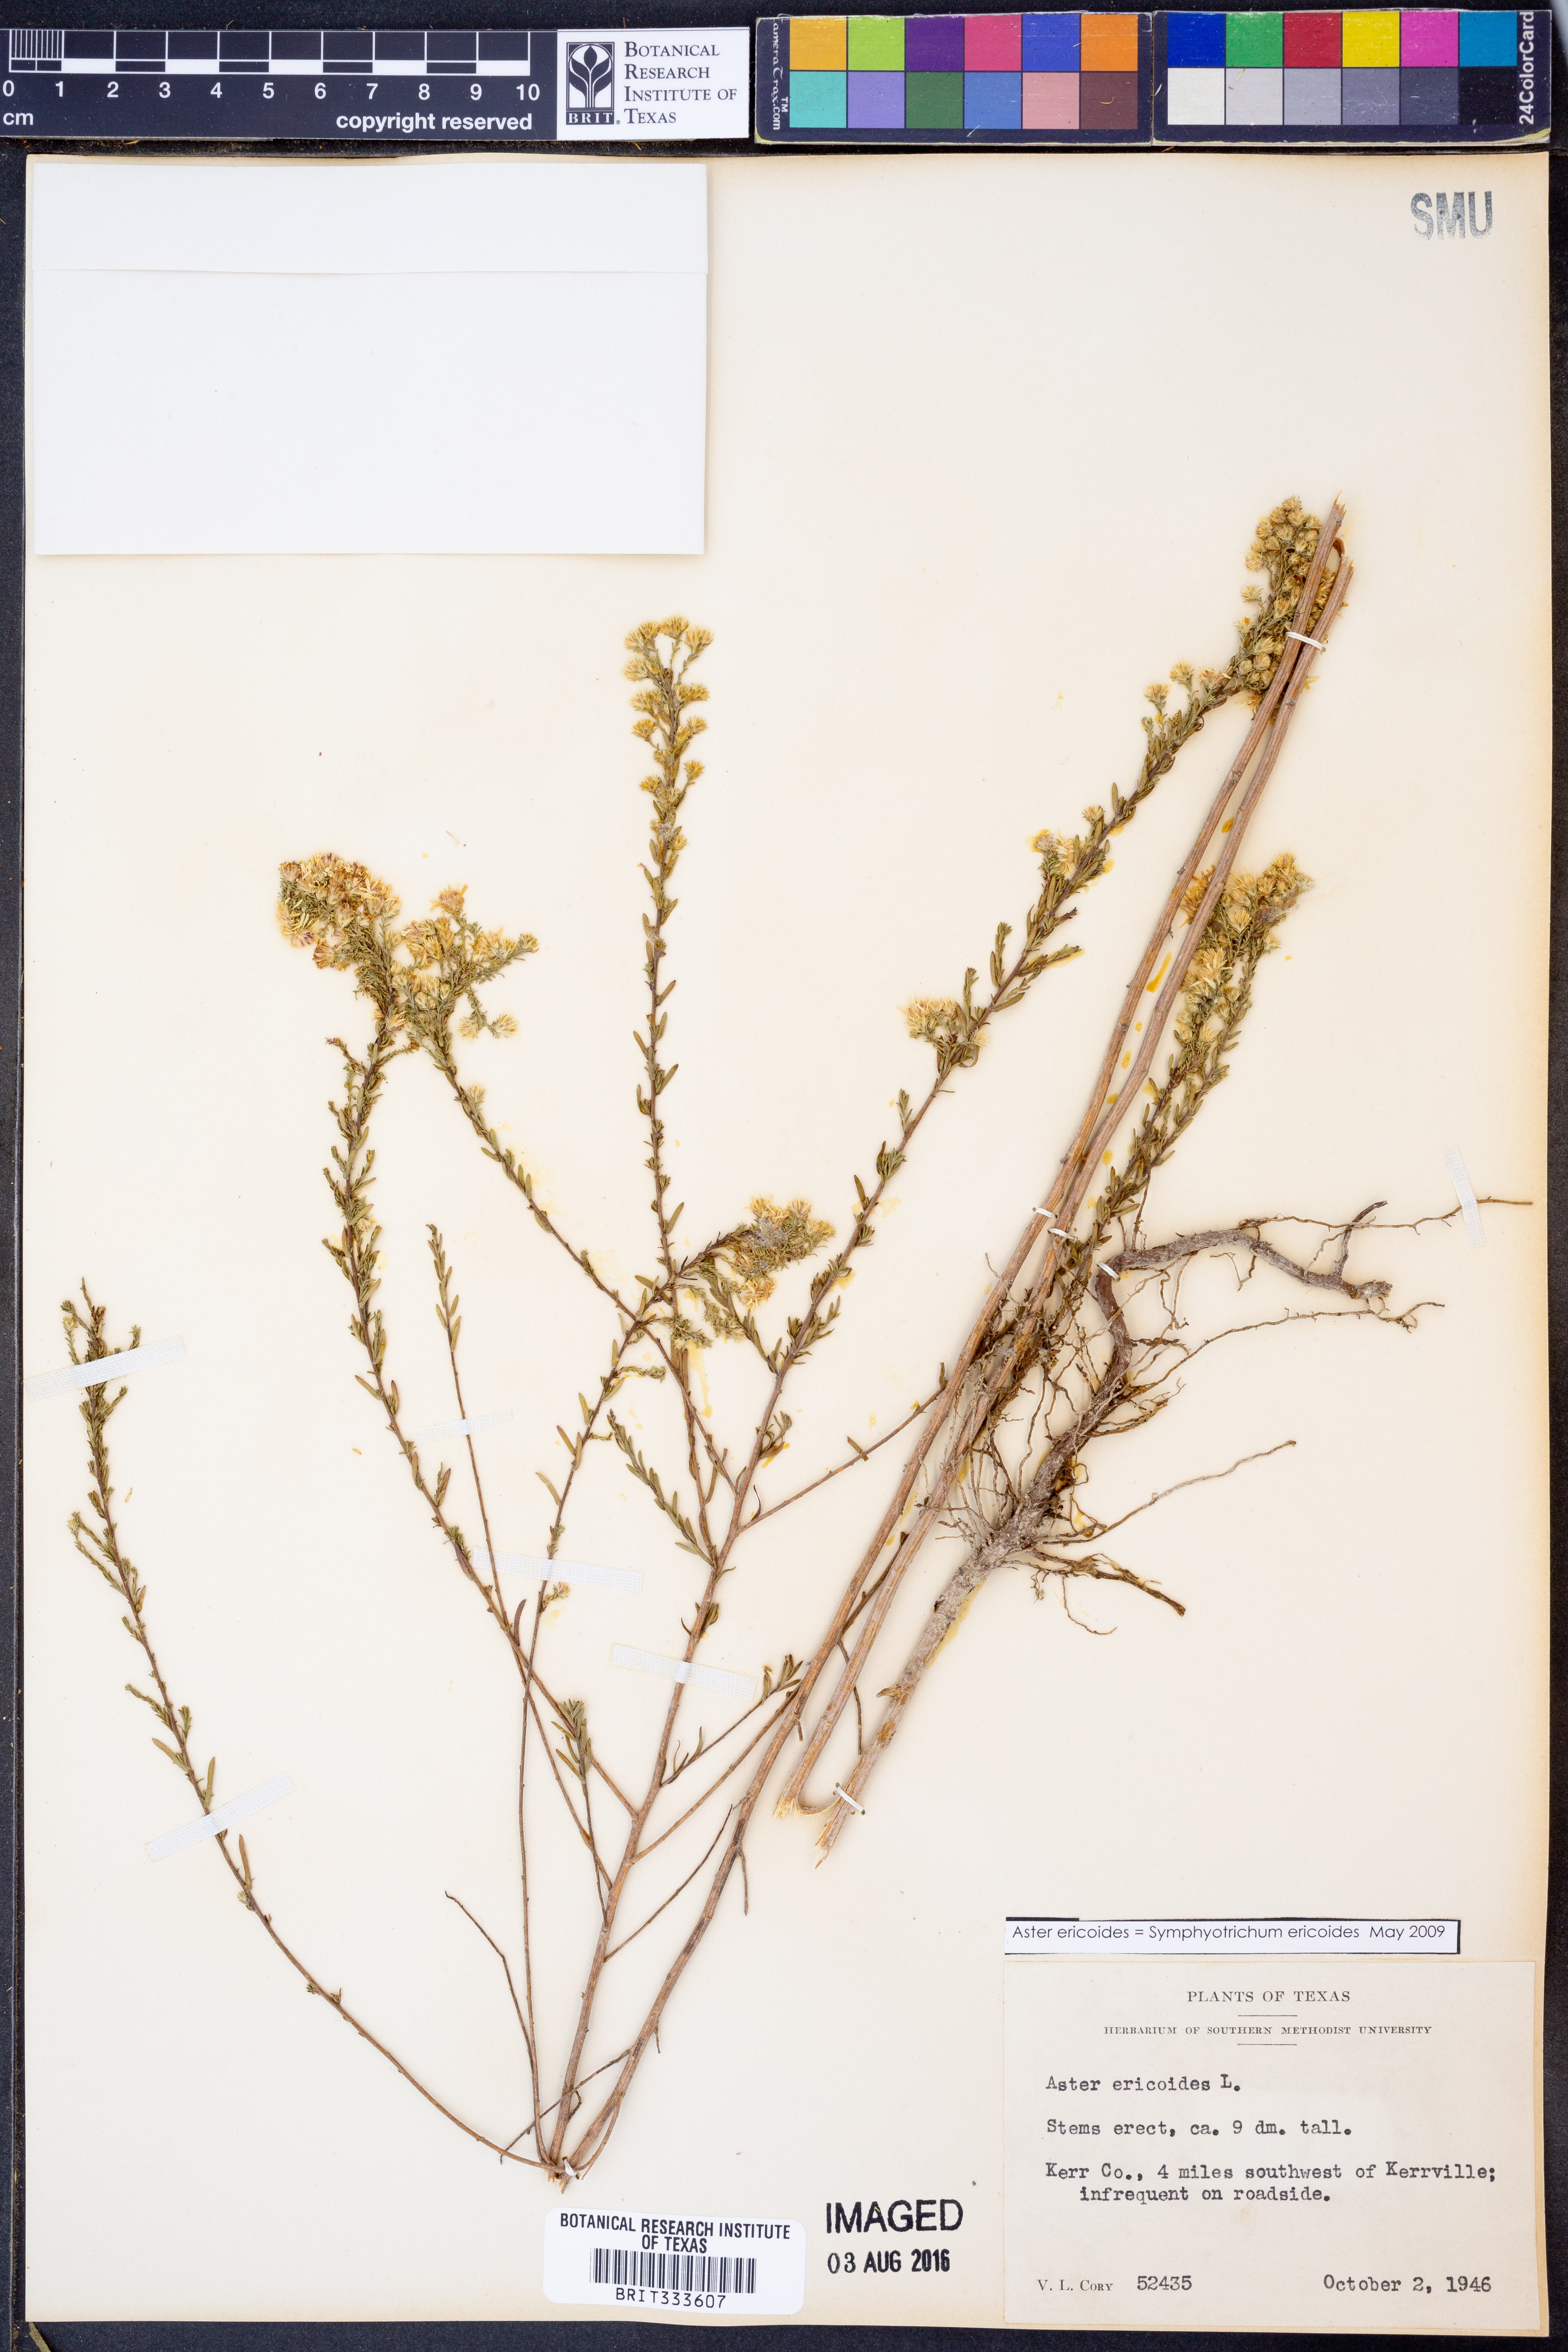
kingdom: Plantae
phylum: Tracheophyta
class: Magnoliopsida
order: Asterales
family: Asteraceae
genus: Symphyotrichum
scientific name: Symphyotrichum ericoides
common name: Heath aster
